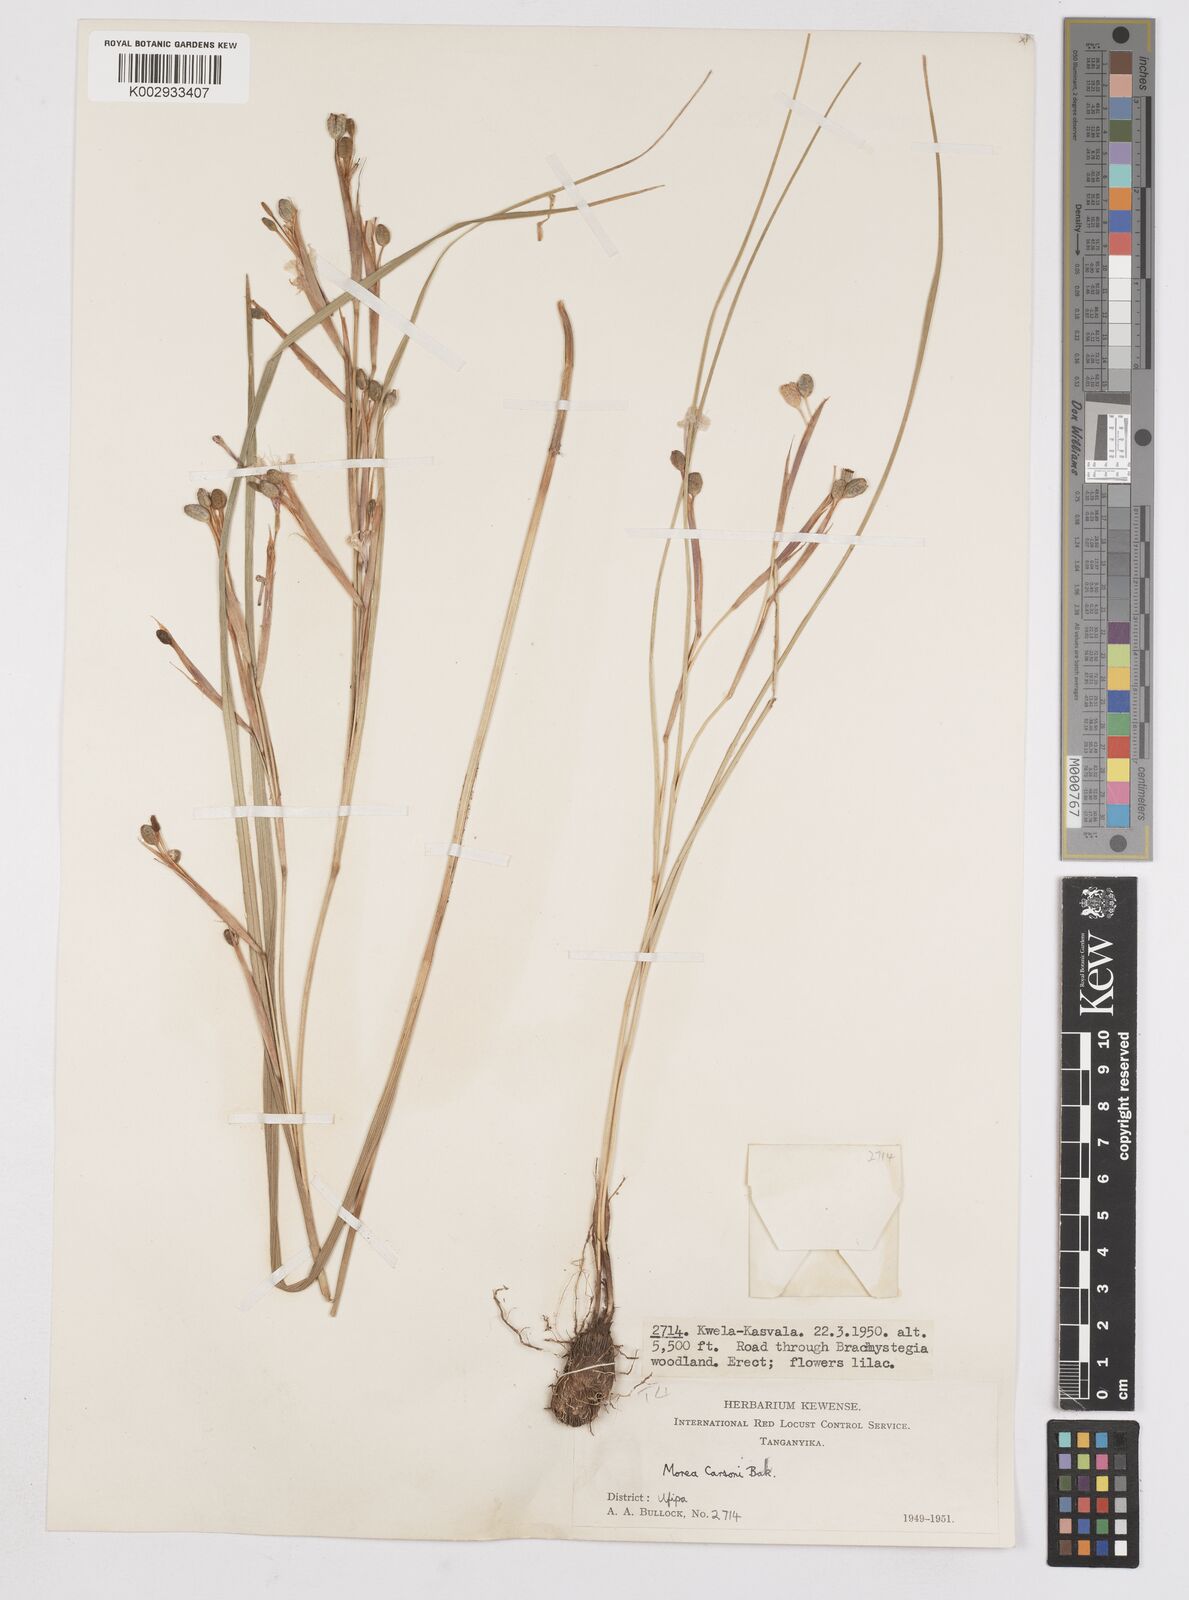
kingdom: Plantae
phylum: Tracheophyta
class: Liliopsida
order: Asparagales
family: Iridaceae
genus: Moraea
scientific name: Moraea carsonii
